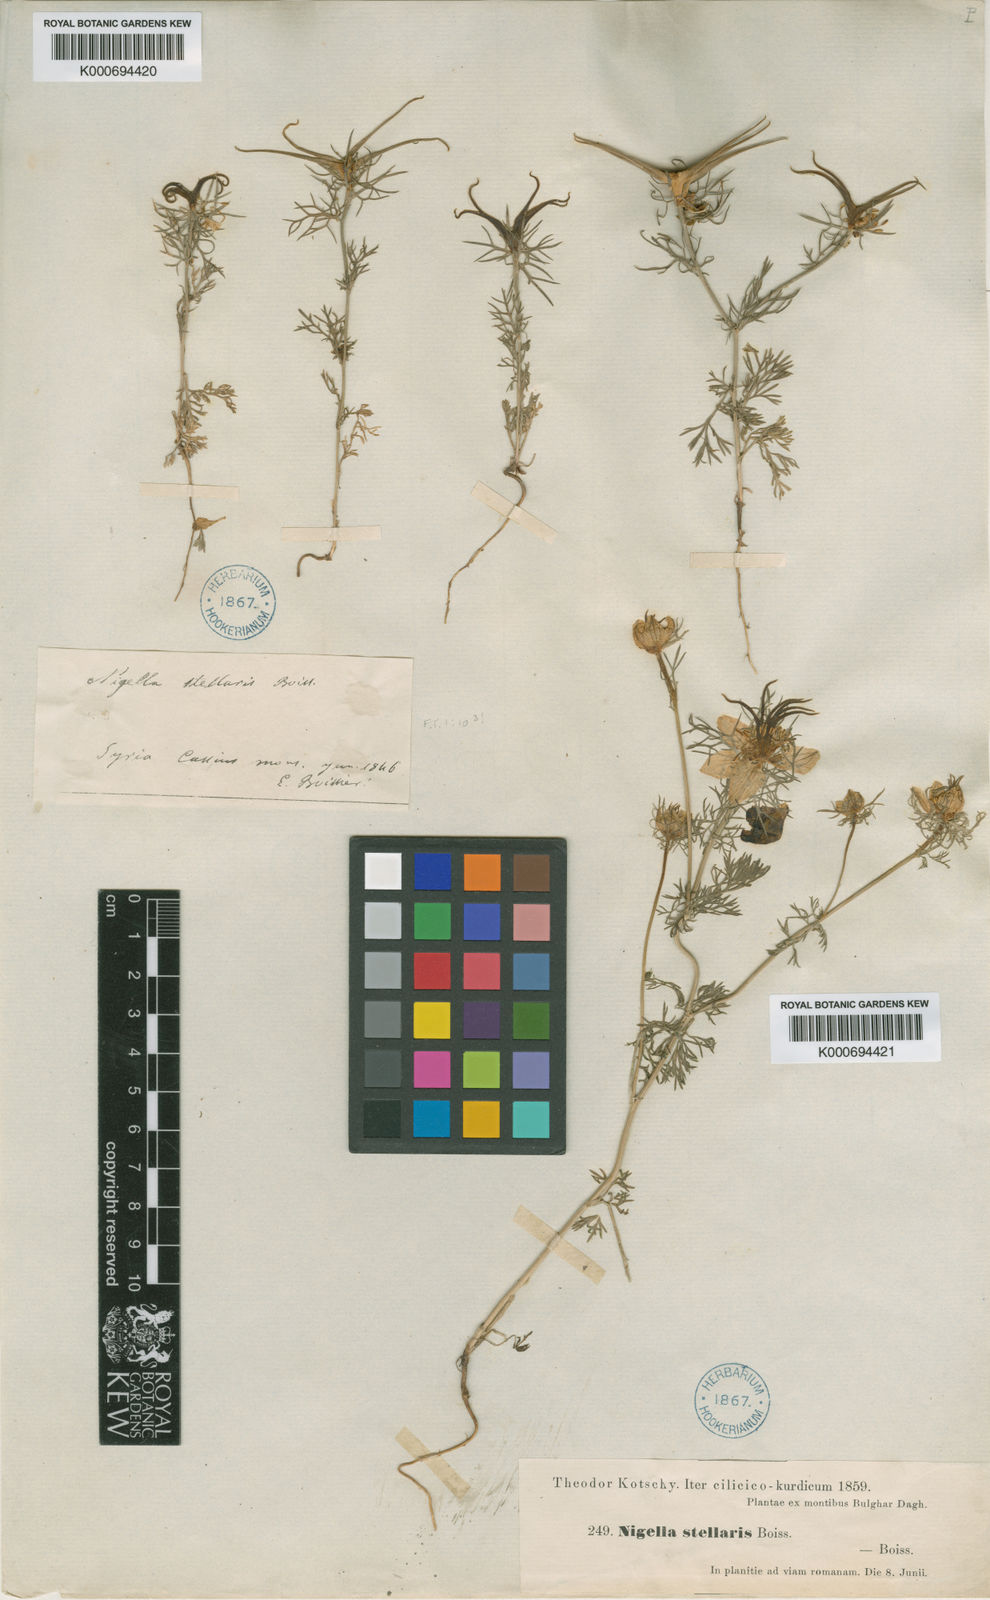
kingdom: Plantae
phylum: Tracheophyta
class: Magnoliopsida
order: Ranunculales
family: Ranunculaceae
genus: Nigella
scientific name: Nigella stellaris
